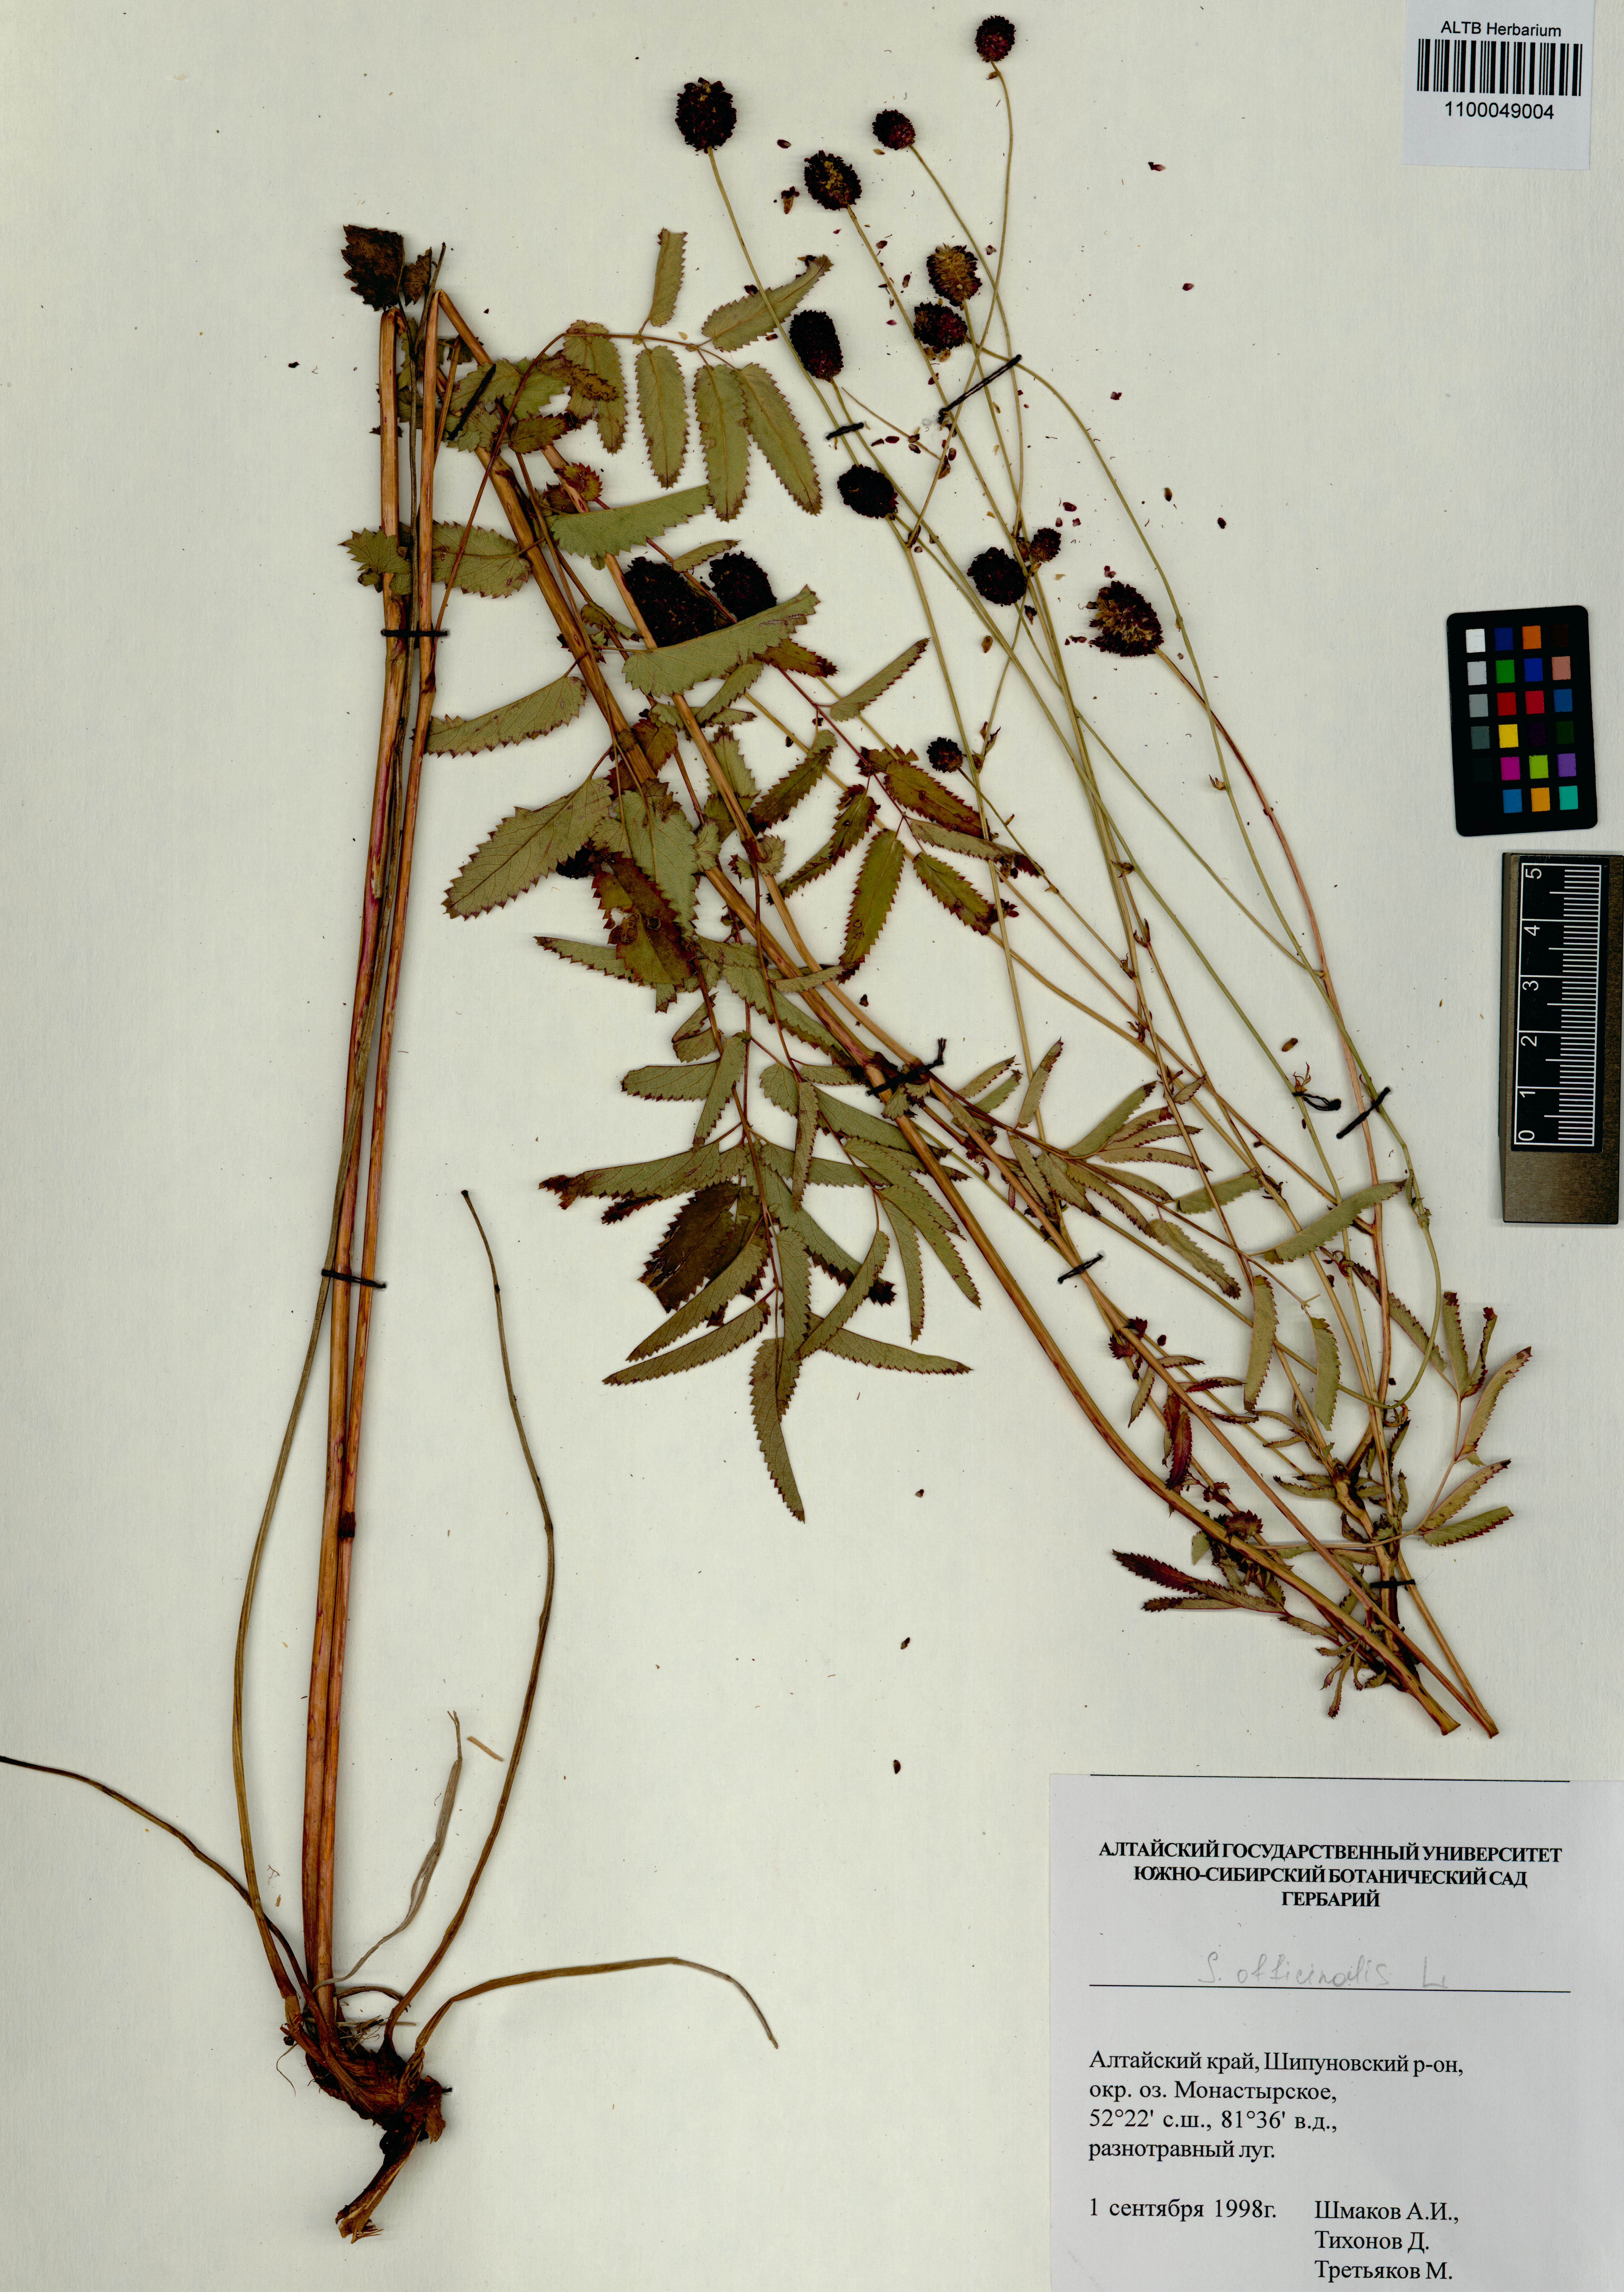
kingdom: Plantae
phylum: Tracheophyta
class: Magnoliopsida
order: Rosales
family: Rosaceae
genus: Sanguisorba
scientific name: Sanguisorba officinalis
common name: Great burnet
